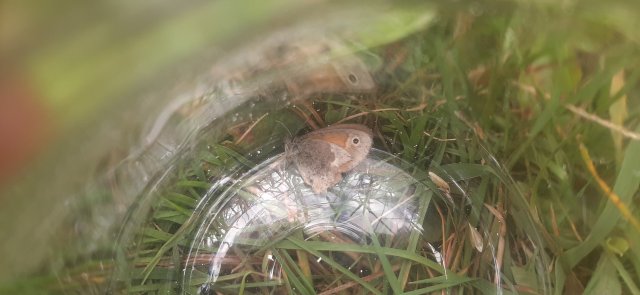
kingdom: Animalia
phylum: Arthropoda
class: Insecta
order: Lepidoptera
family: Nymphalidae
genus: Coenonympha
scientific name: Coenonympha california
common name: California Ringlet
